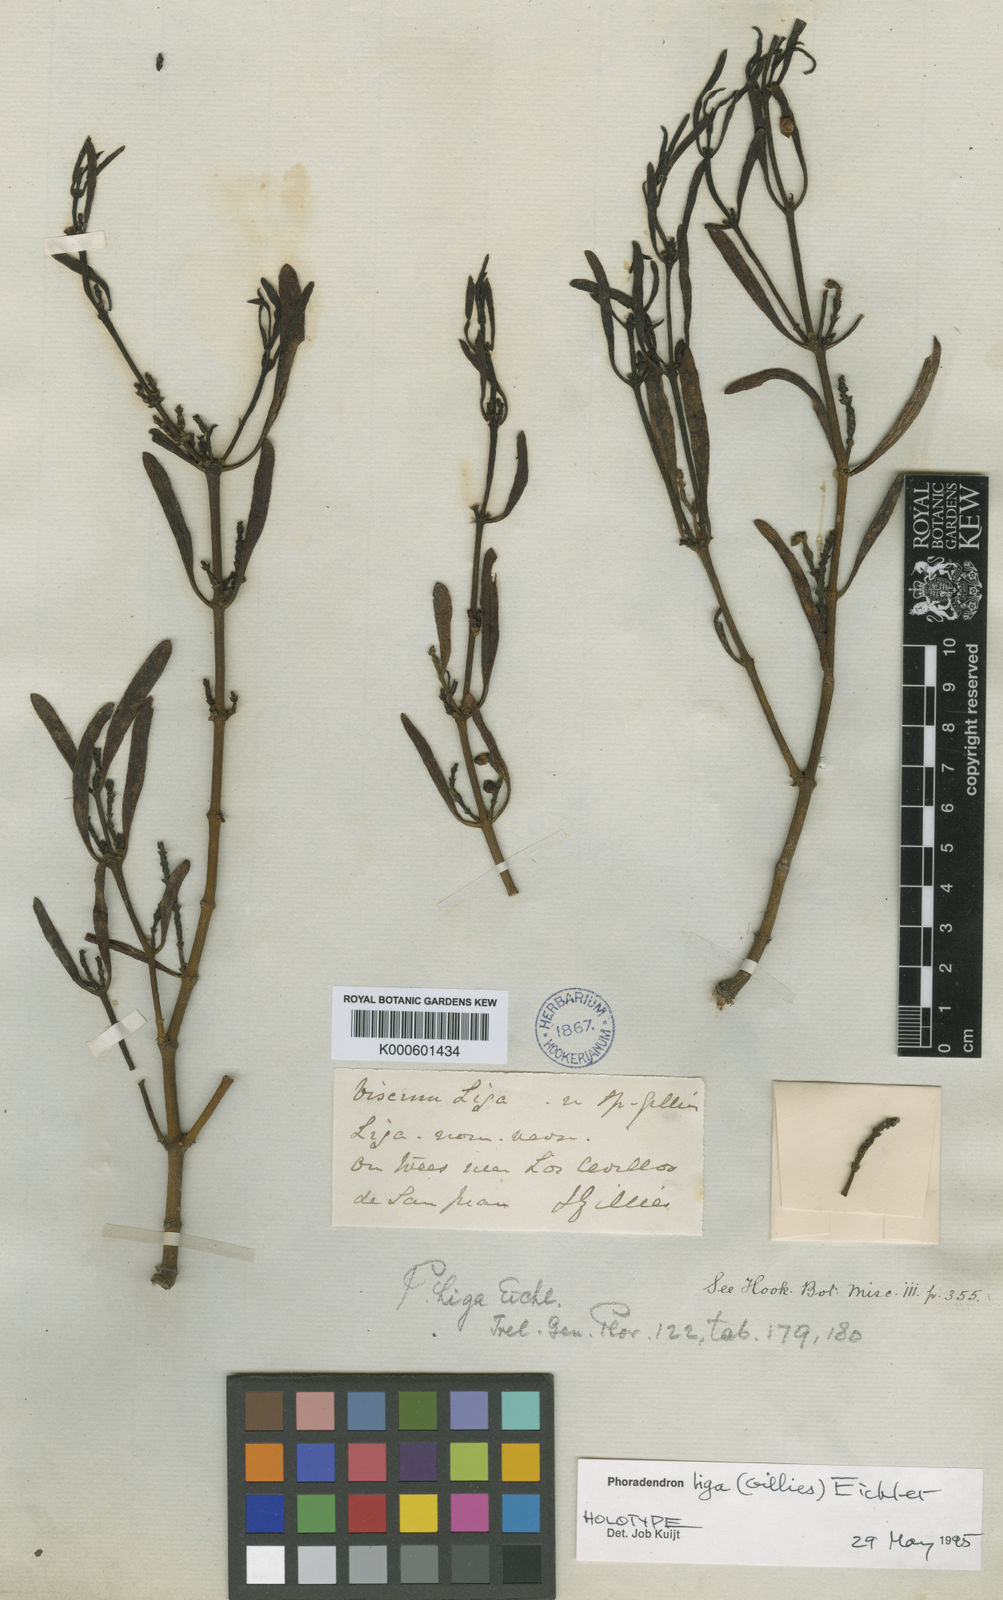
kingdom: Plantae
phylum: Tracheophyta
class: Magnoliopsida
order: Santalales
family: Viscaceae
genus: Phoradendron
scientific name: Phoradendron liga
